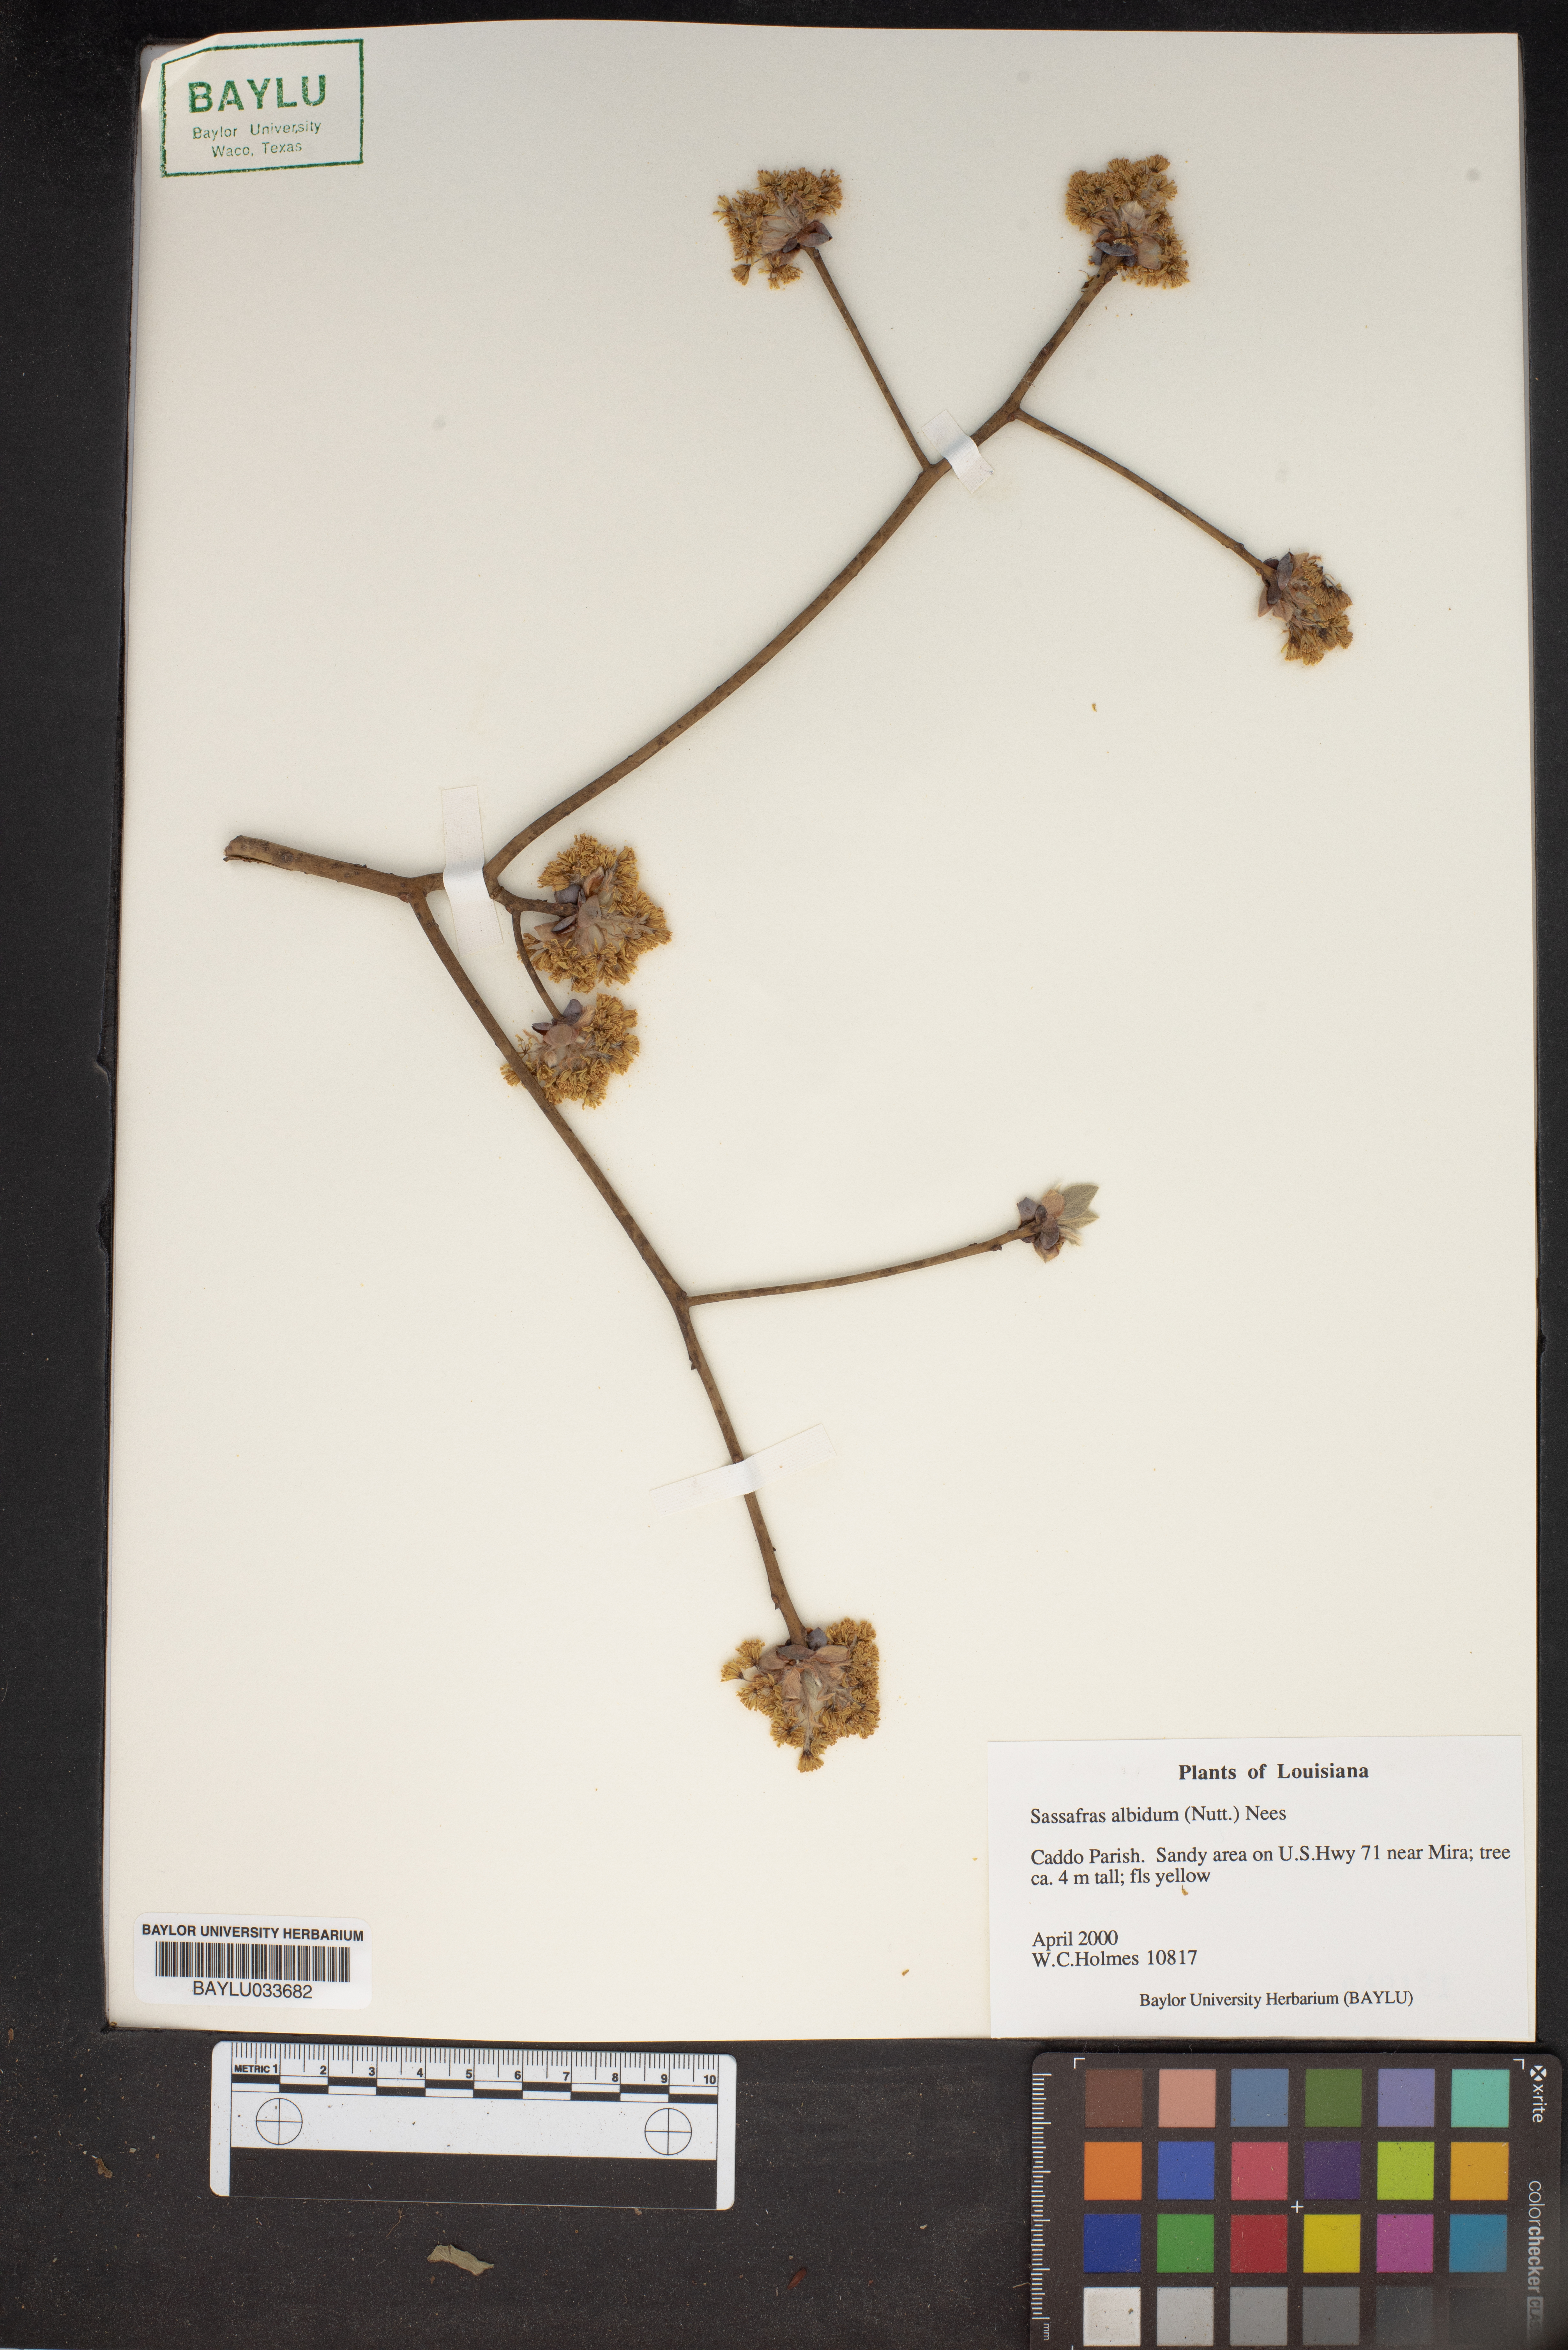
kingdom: Plantae
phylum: Tracheophyta
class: Magnoliopsida
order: Laurales
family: Lauraceae
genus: Sassafras
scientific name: Sassafras albidum
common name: Sassafras
